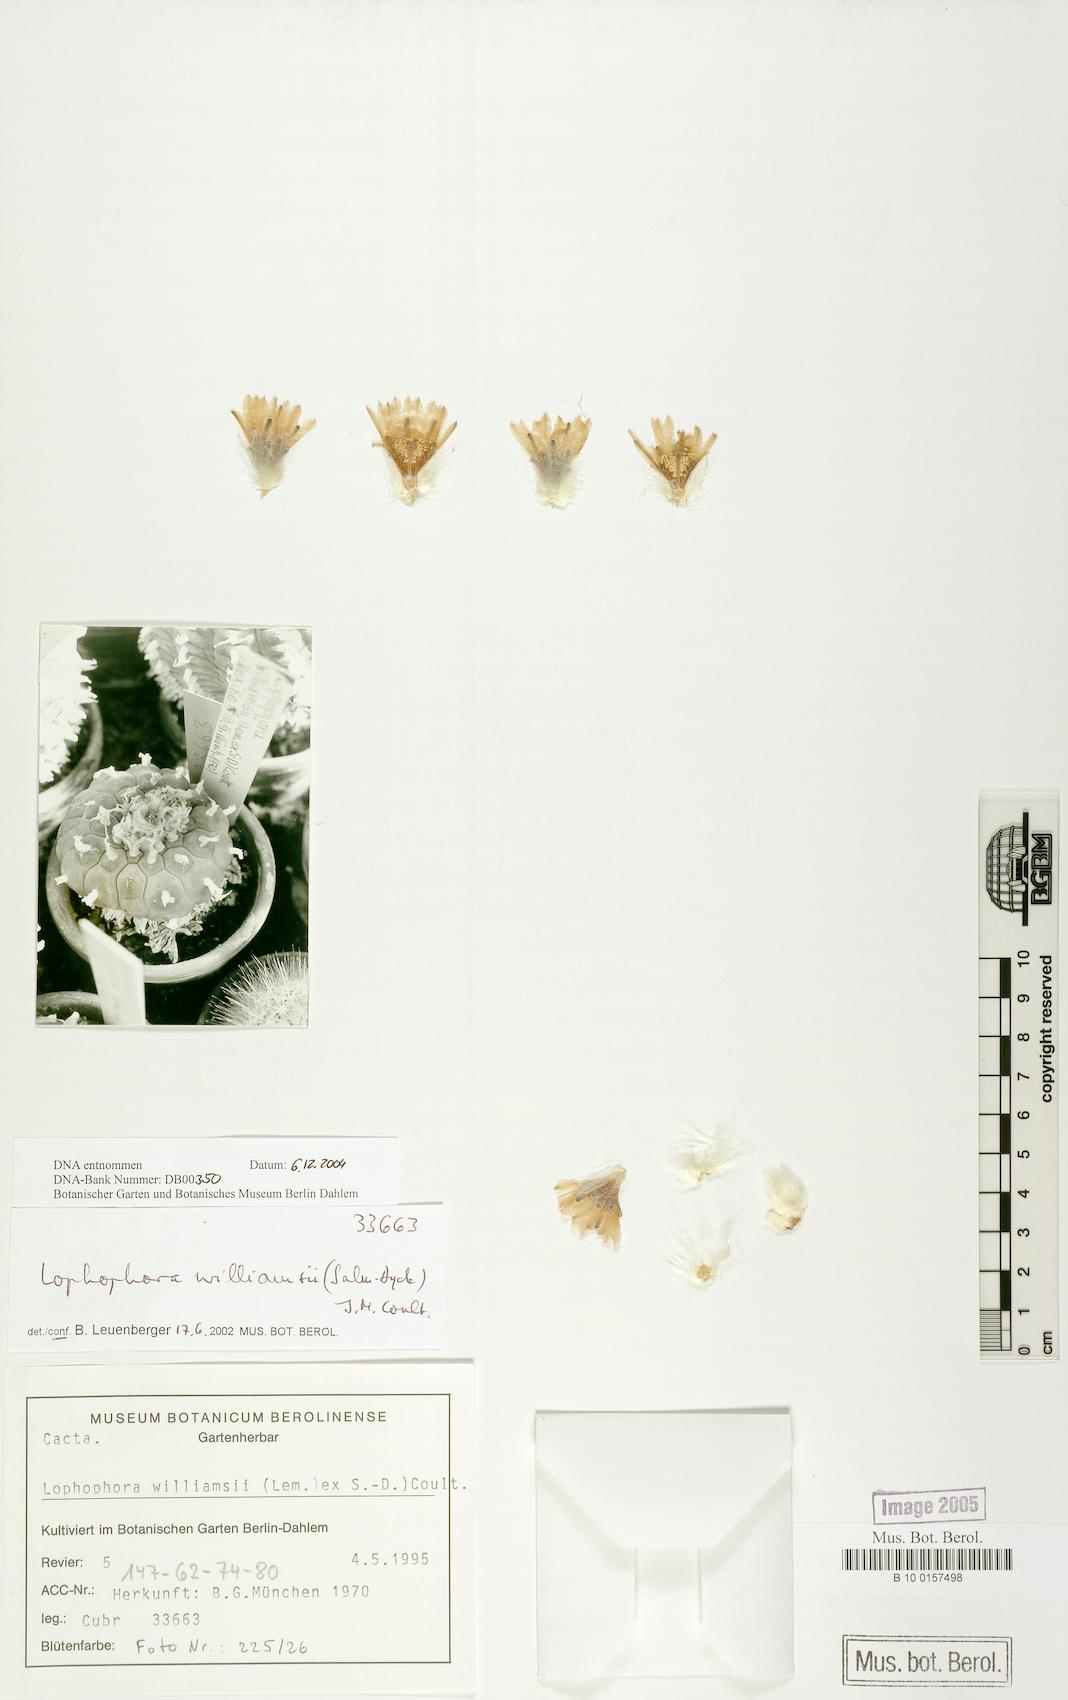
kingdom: Plantae
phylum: Tracheophyta
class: Magnoliopsida
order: Caryophyllales
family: Cactaceae
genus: Lophophora
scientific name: Lophophora williamsii
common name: Indian-dope
